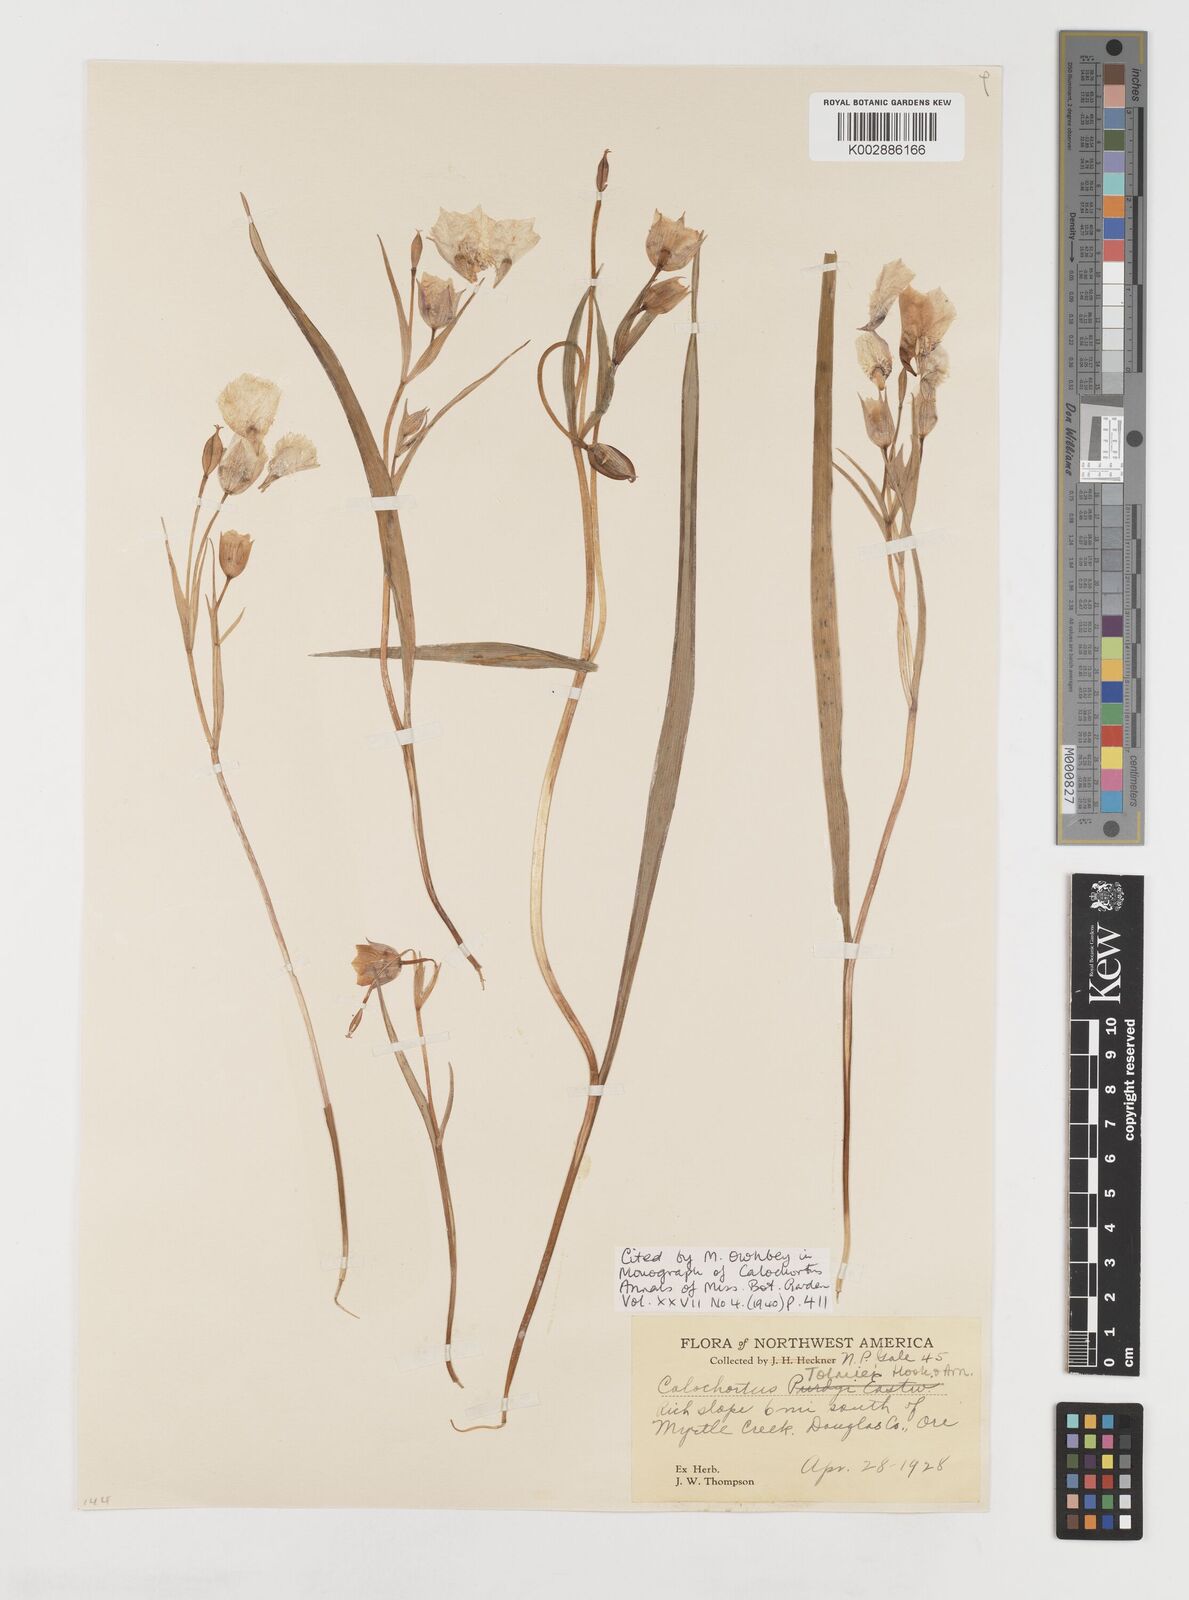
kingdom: Plantae
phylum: Tracheophyta
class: Liliopsida
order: Liliales
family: Liliaceae
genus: Calochortus
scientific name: Calochortus tolmiei
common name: Pussy-ears
